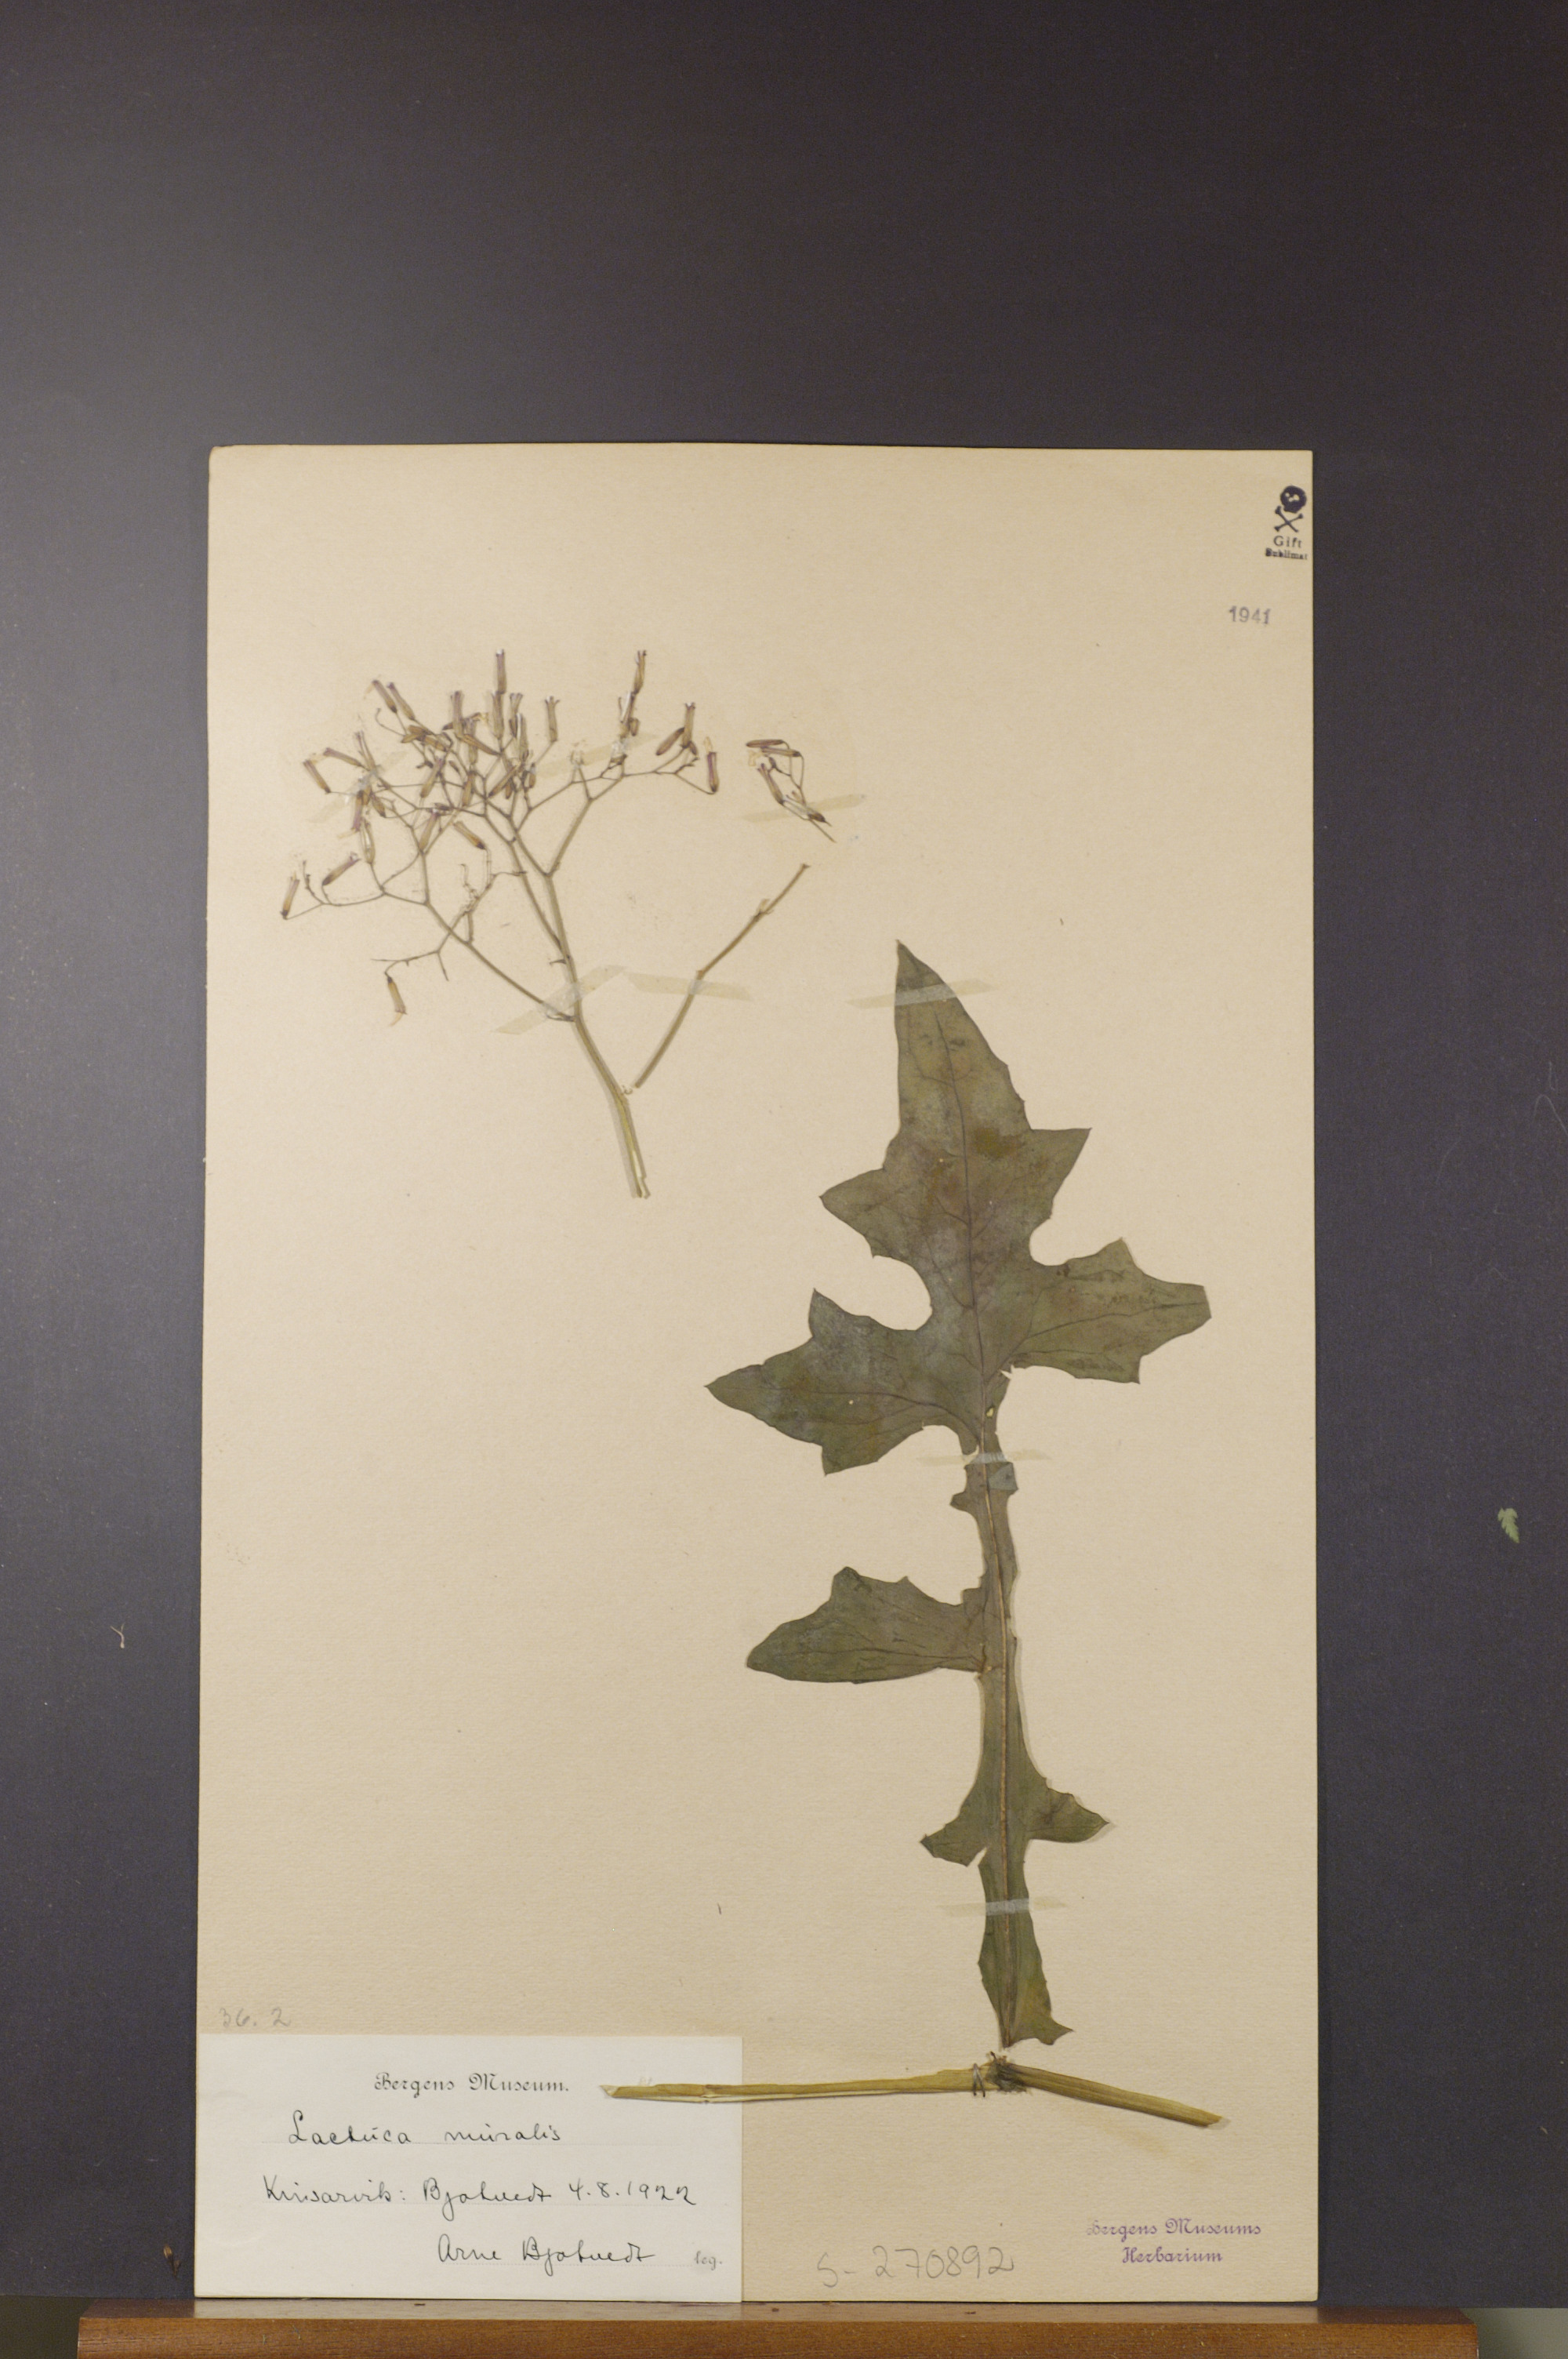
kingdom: Plantae
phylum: Tracheophyta
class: Magnoliopsida
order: Asterales
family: Asteraceae
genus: Mycelis
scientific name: Mycelis muralis
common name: Wall lettuce
